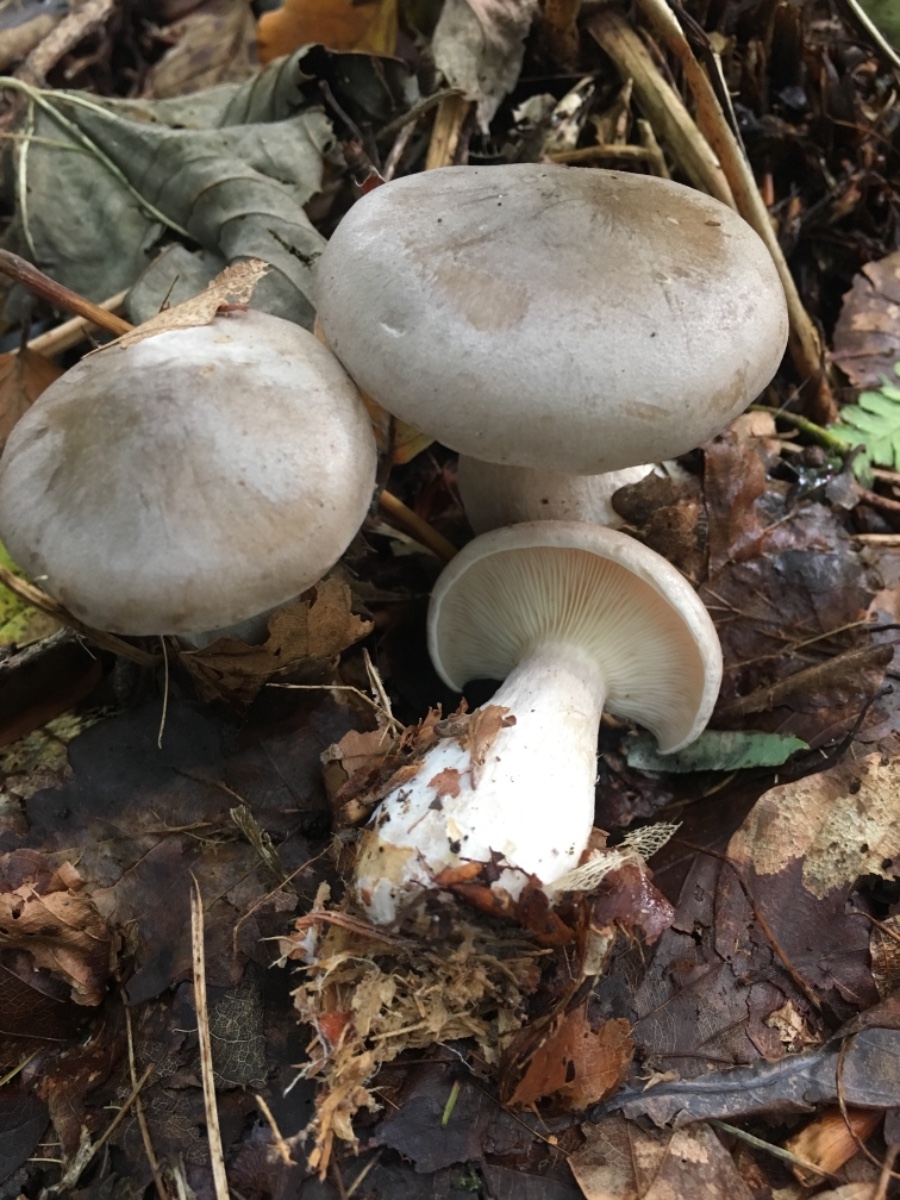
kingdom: Fungi
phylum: Basidiomycota
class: Agaricomycetes
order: Agaricales
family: Tricholomataceae
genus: Clitocybe
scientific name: Clitocybe nebularis
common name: tåge-tragthat
